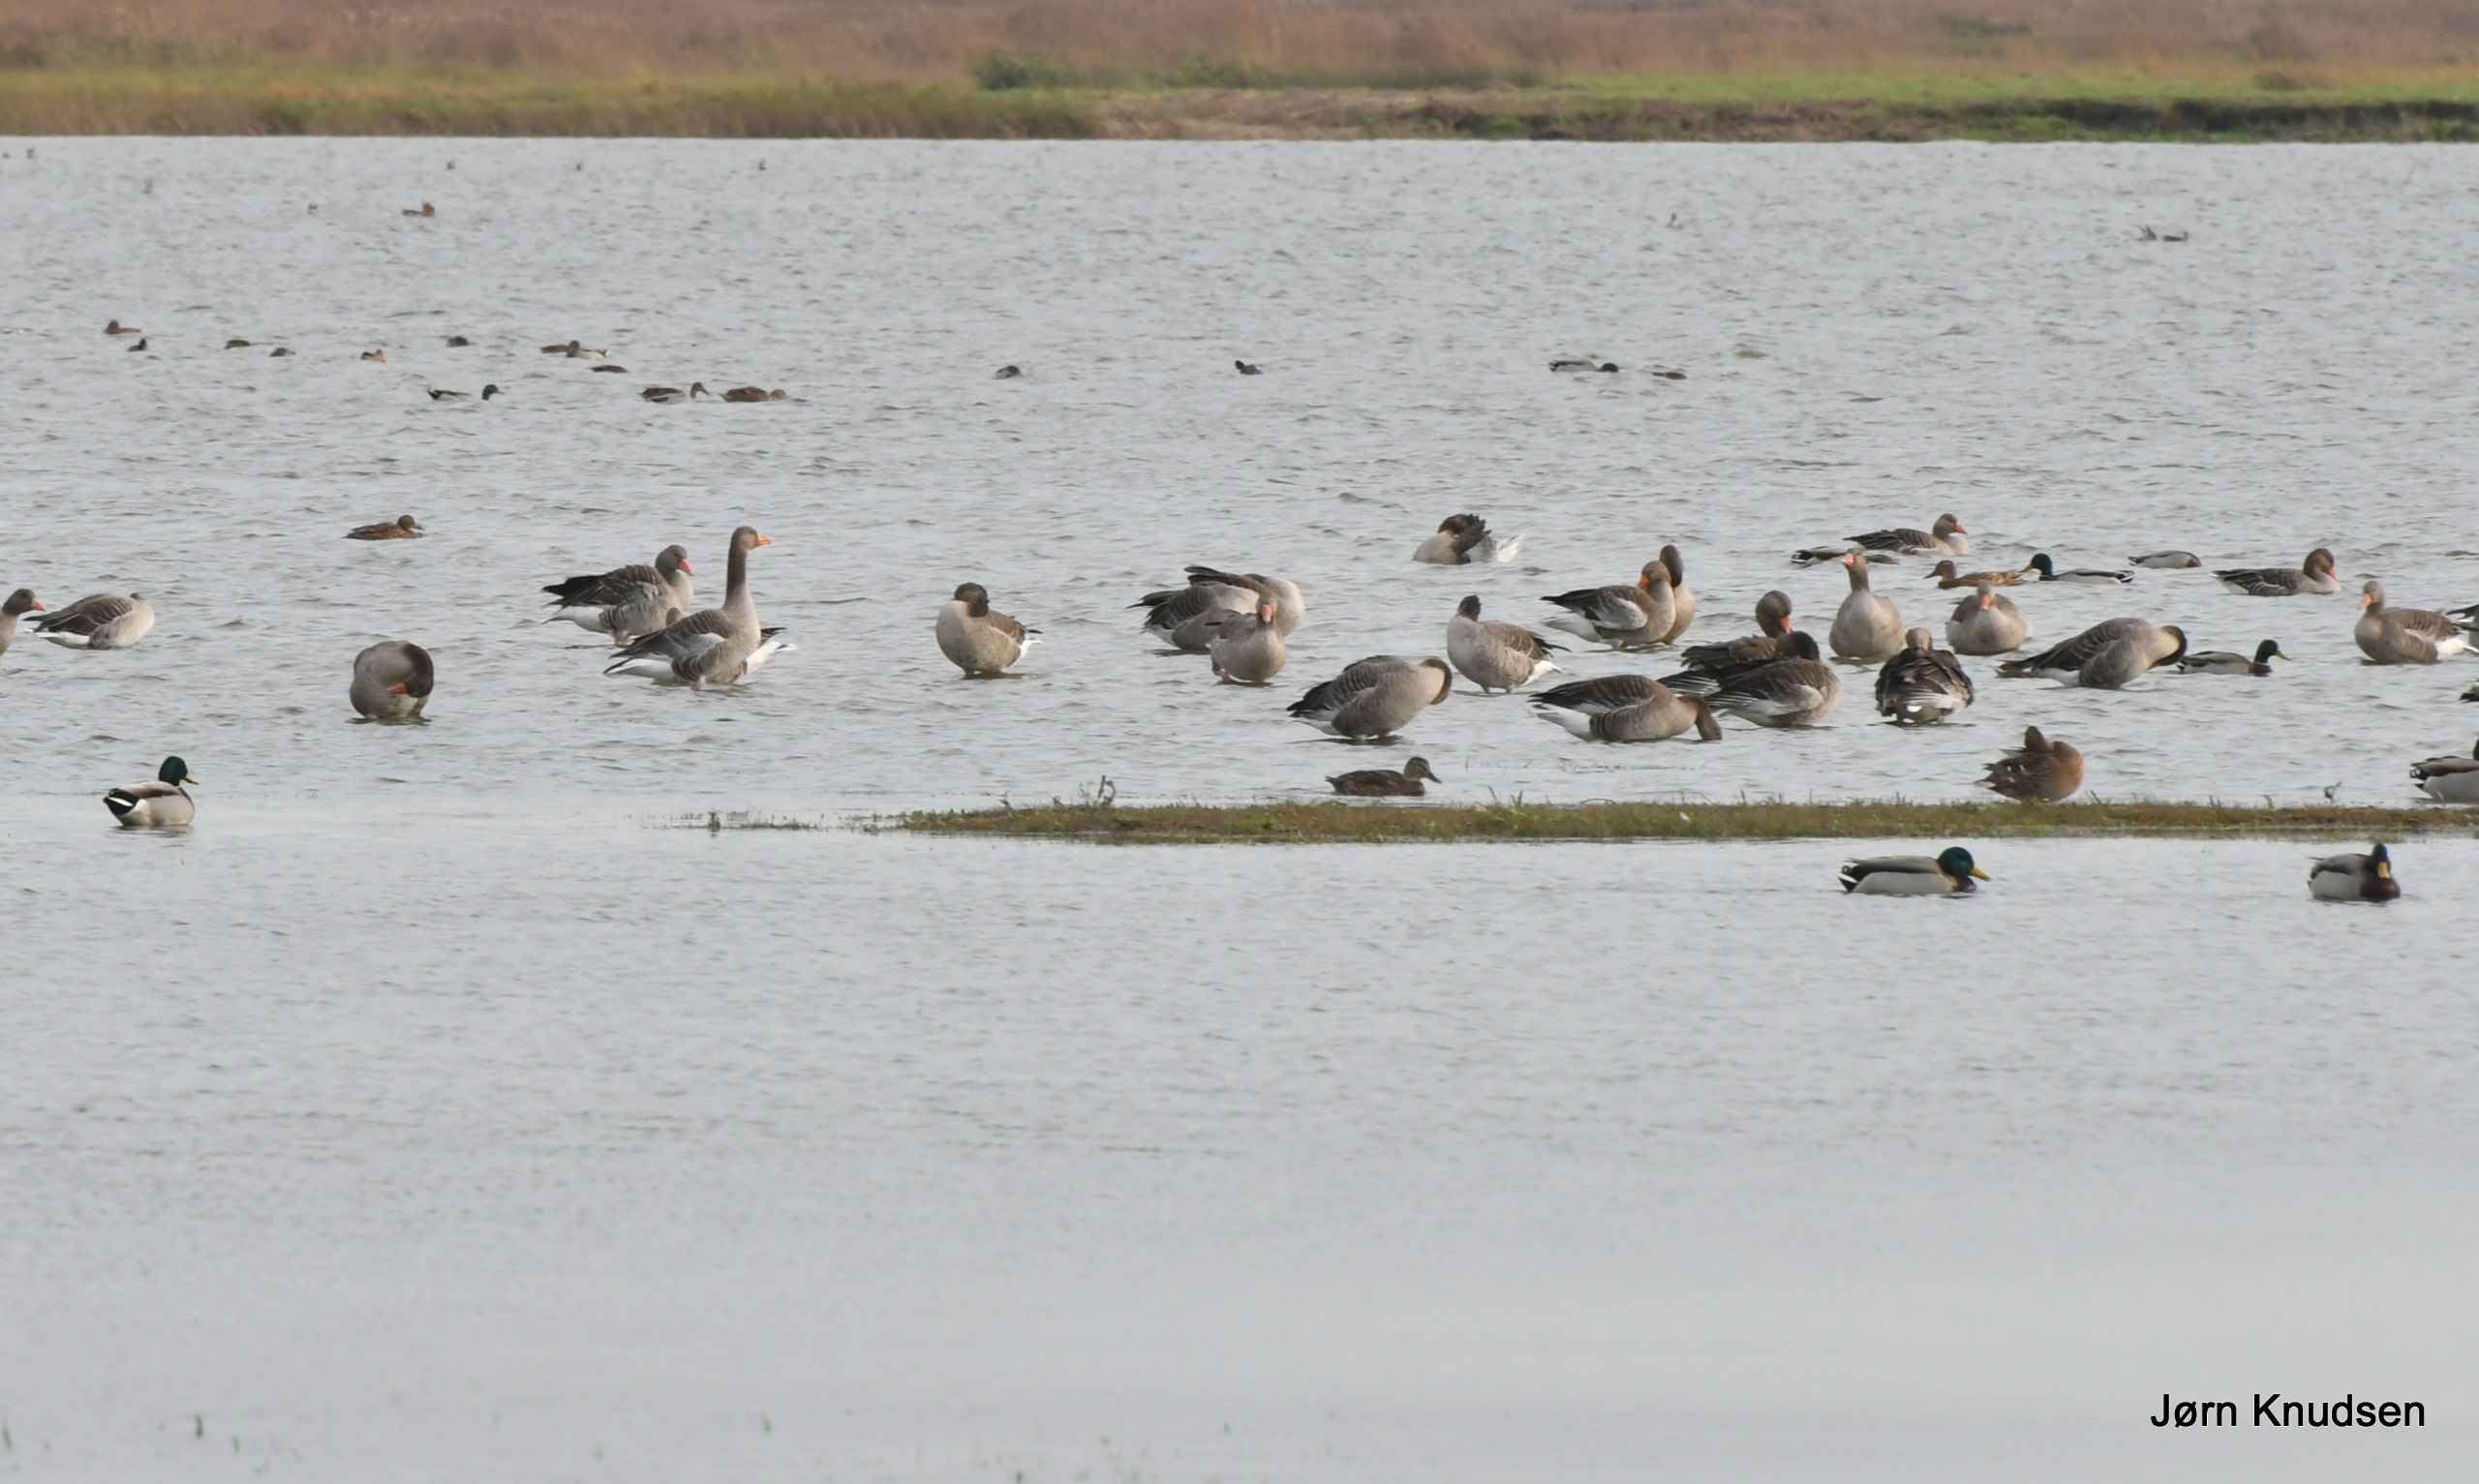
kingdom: Animalia
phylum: Chordata
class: Aves
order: Anseriformes
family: Anatidae
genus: Anser
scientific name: Anser anser
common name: Grågås
